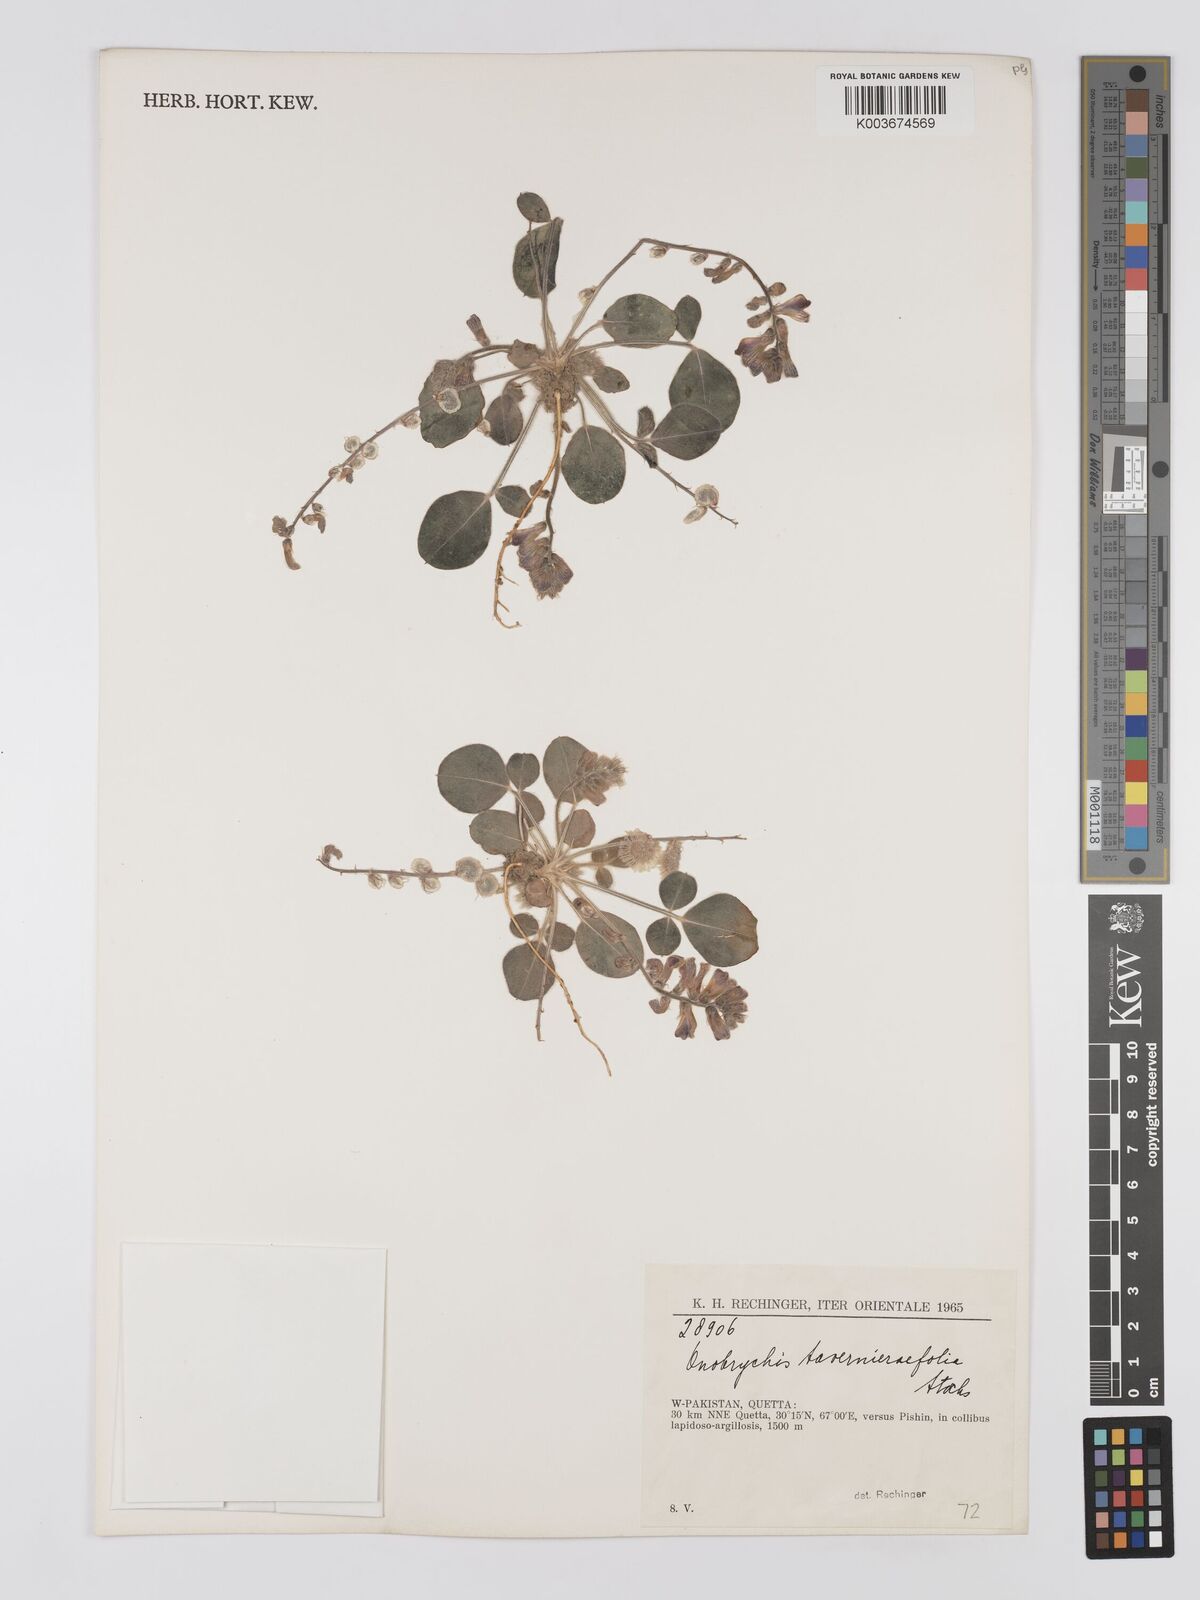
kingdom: Plantae
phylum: Tracheophyta
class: Magnoliopsida
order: Fabales
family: Fabaceae
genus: Onobrychis
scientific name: Onobrychis
